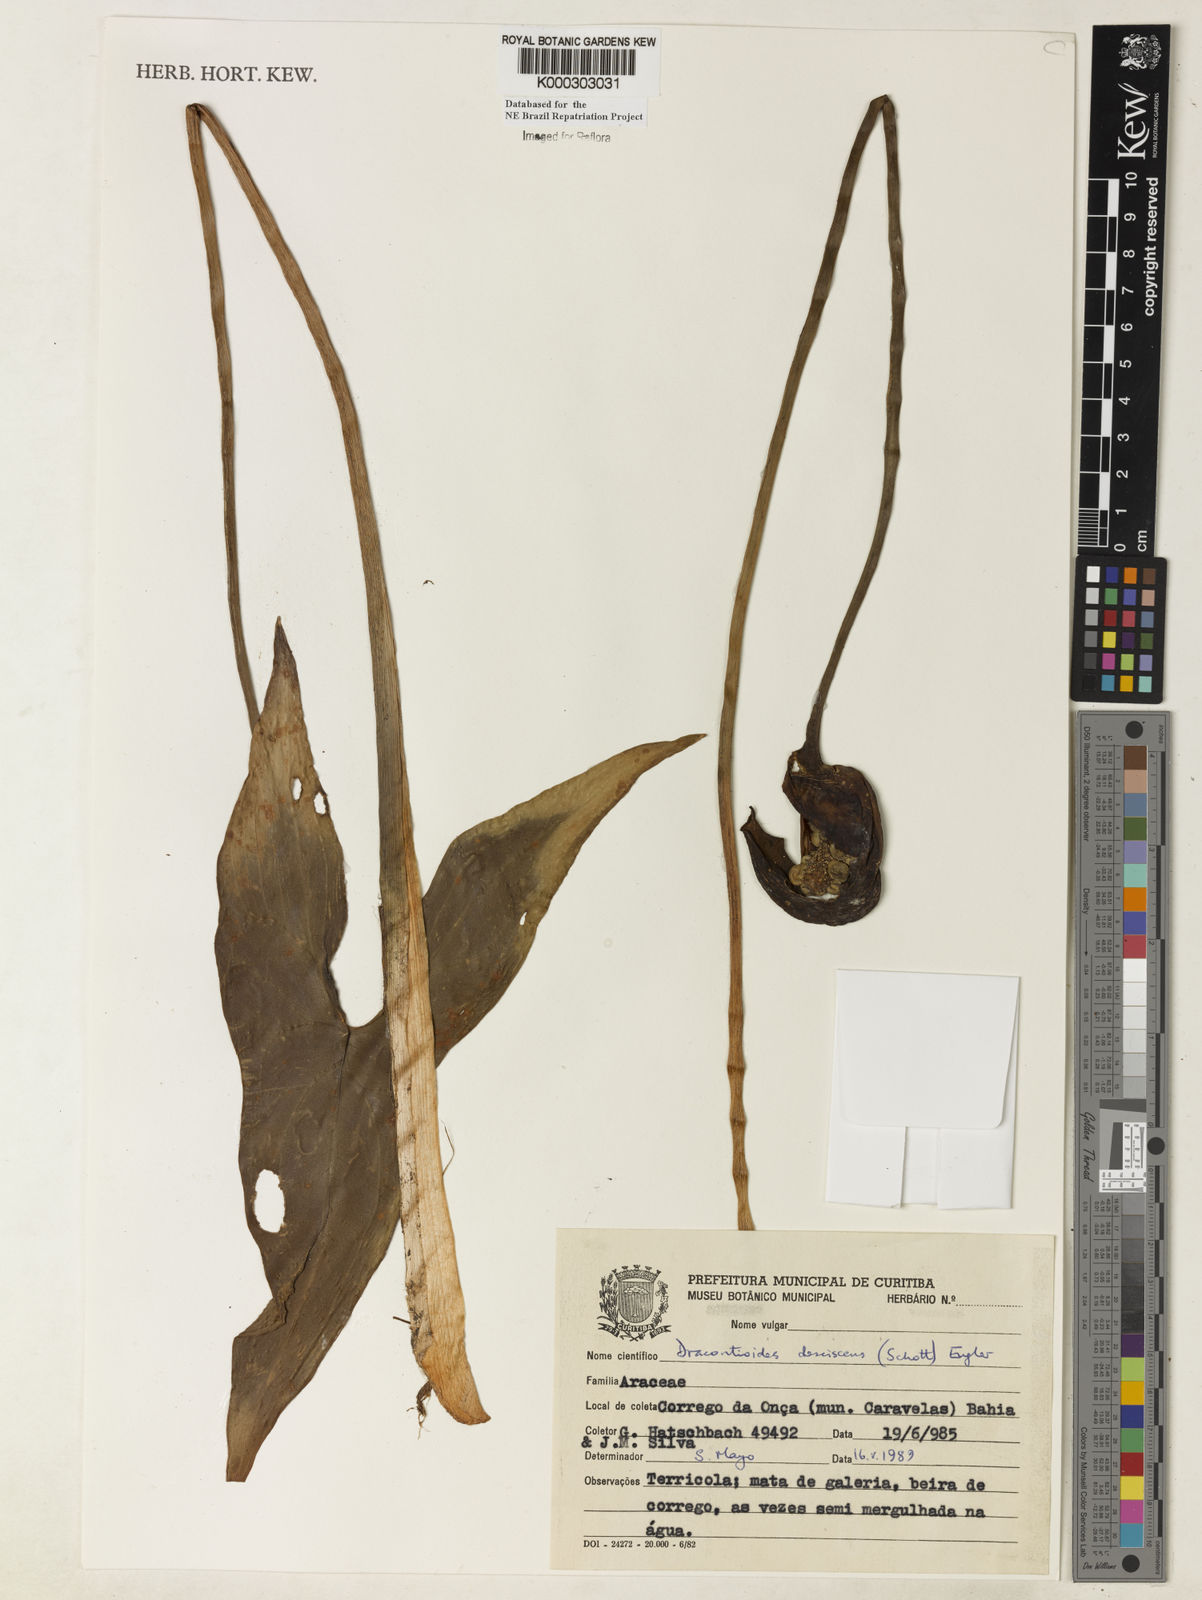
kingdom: Plantae
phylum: Tracheophyta
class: Liliopsida
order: Alismatales
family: Araceae
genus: Dracontioides
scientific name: Dracontioides desciscens
